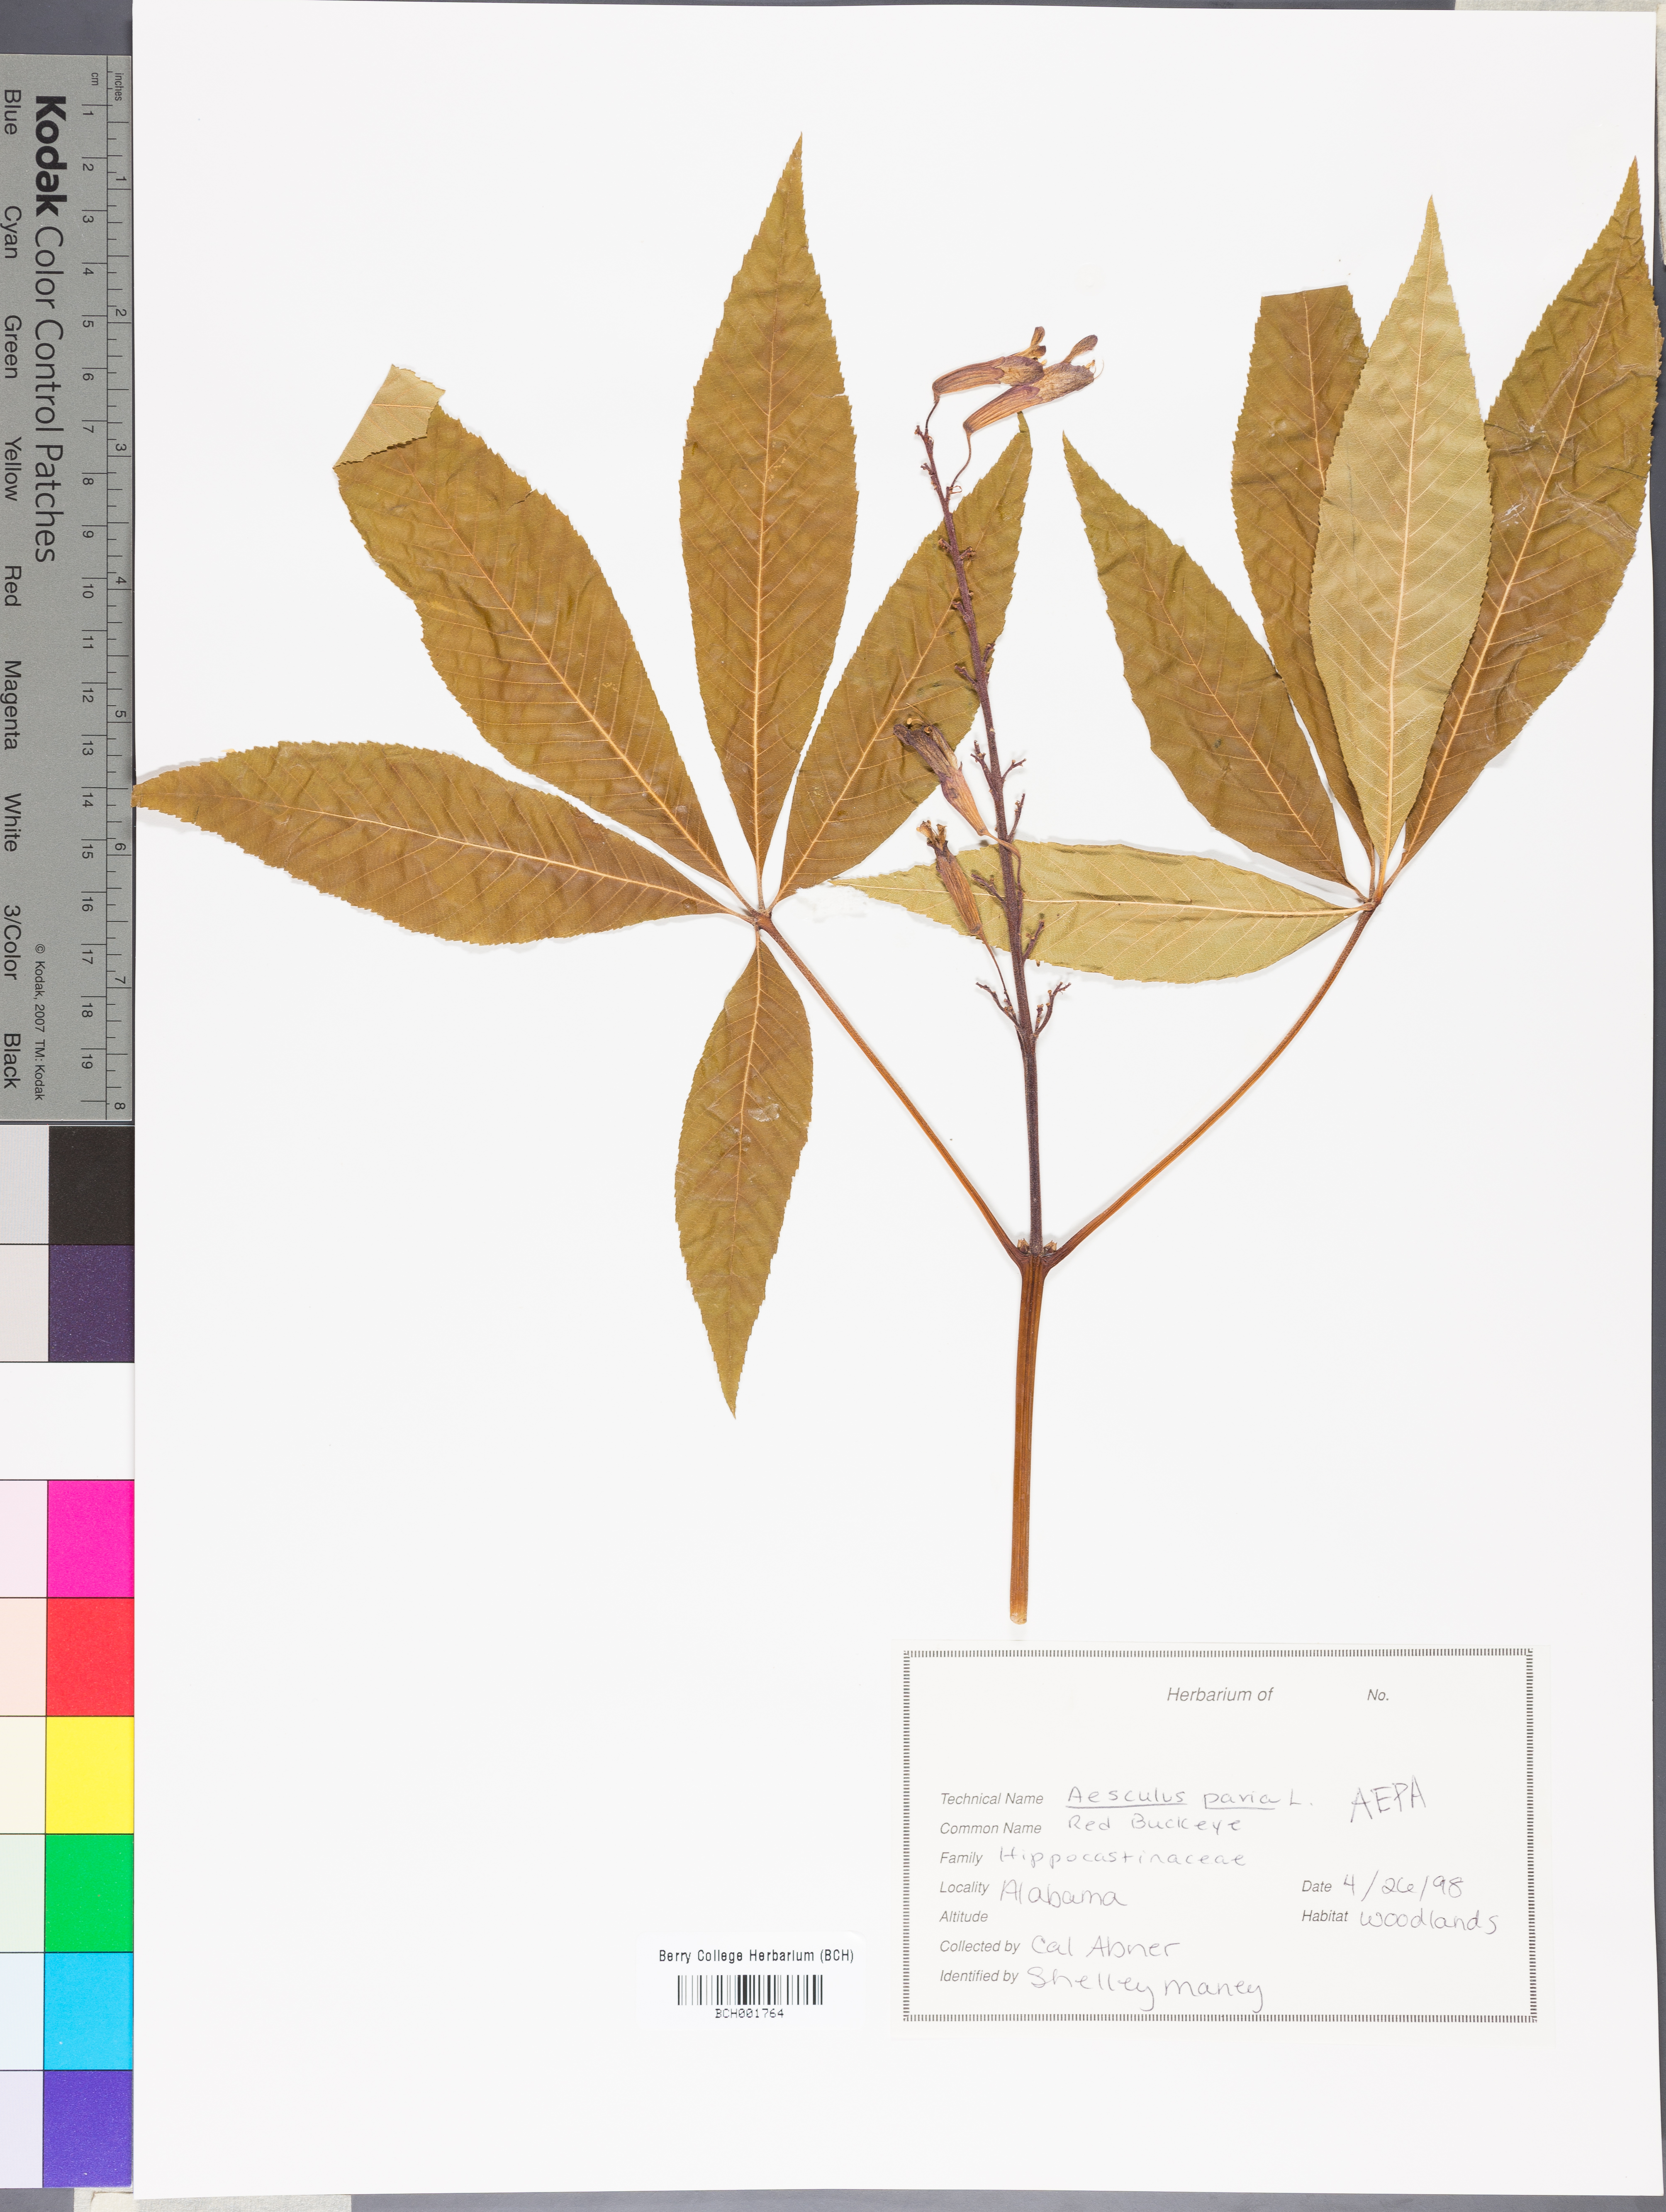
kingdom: Plantae
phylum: Tracheophyta
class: Magnoliopsida
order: Sapindales
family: Sapindaceae
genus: Aesculus
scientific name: Aesculus pavia
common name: Red buckeye
